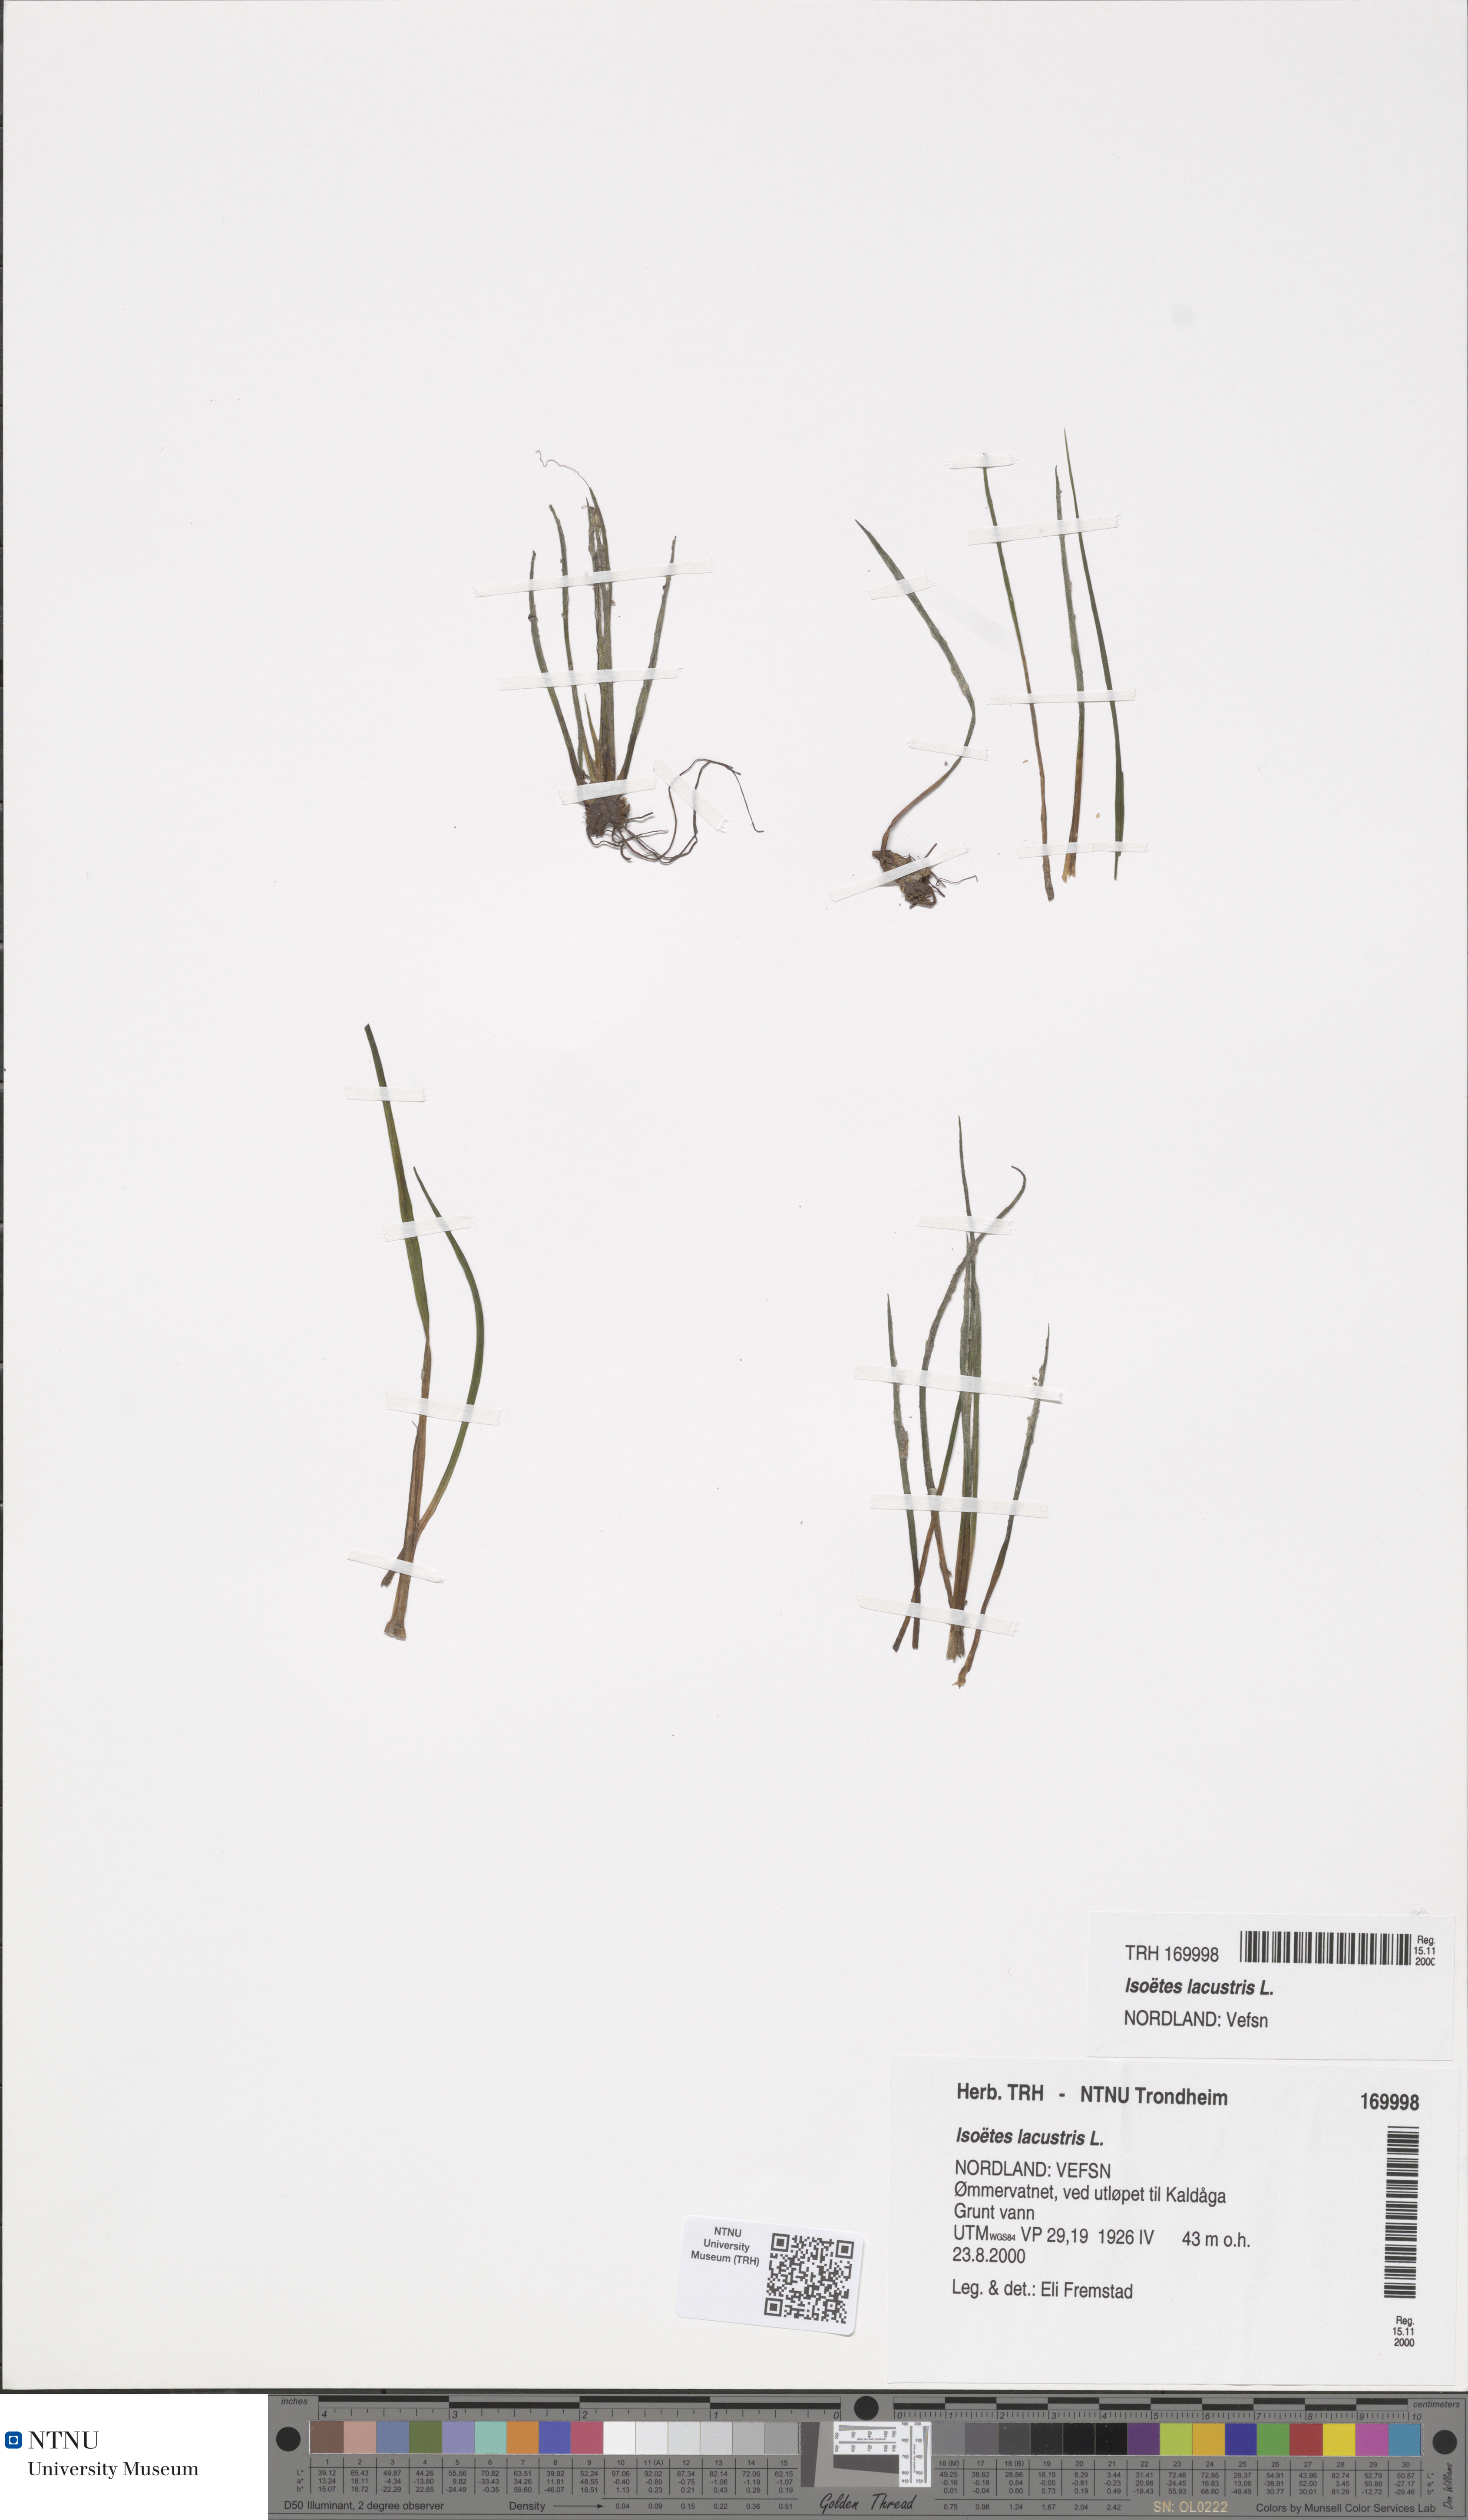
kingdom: Plantae
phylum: Tracheophyta
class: Lycopodiopsida
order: Isoetales
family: Isoetaceae
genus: Isoetes
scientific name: Isoetes lacustris
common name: Common quillwort
